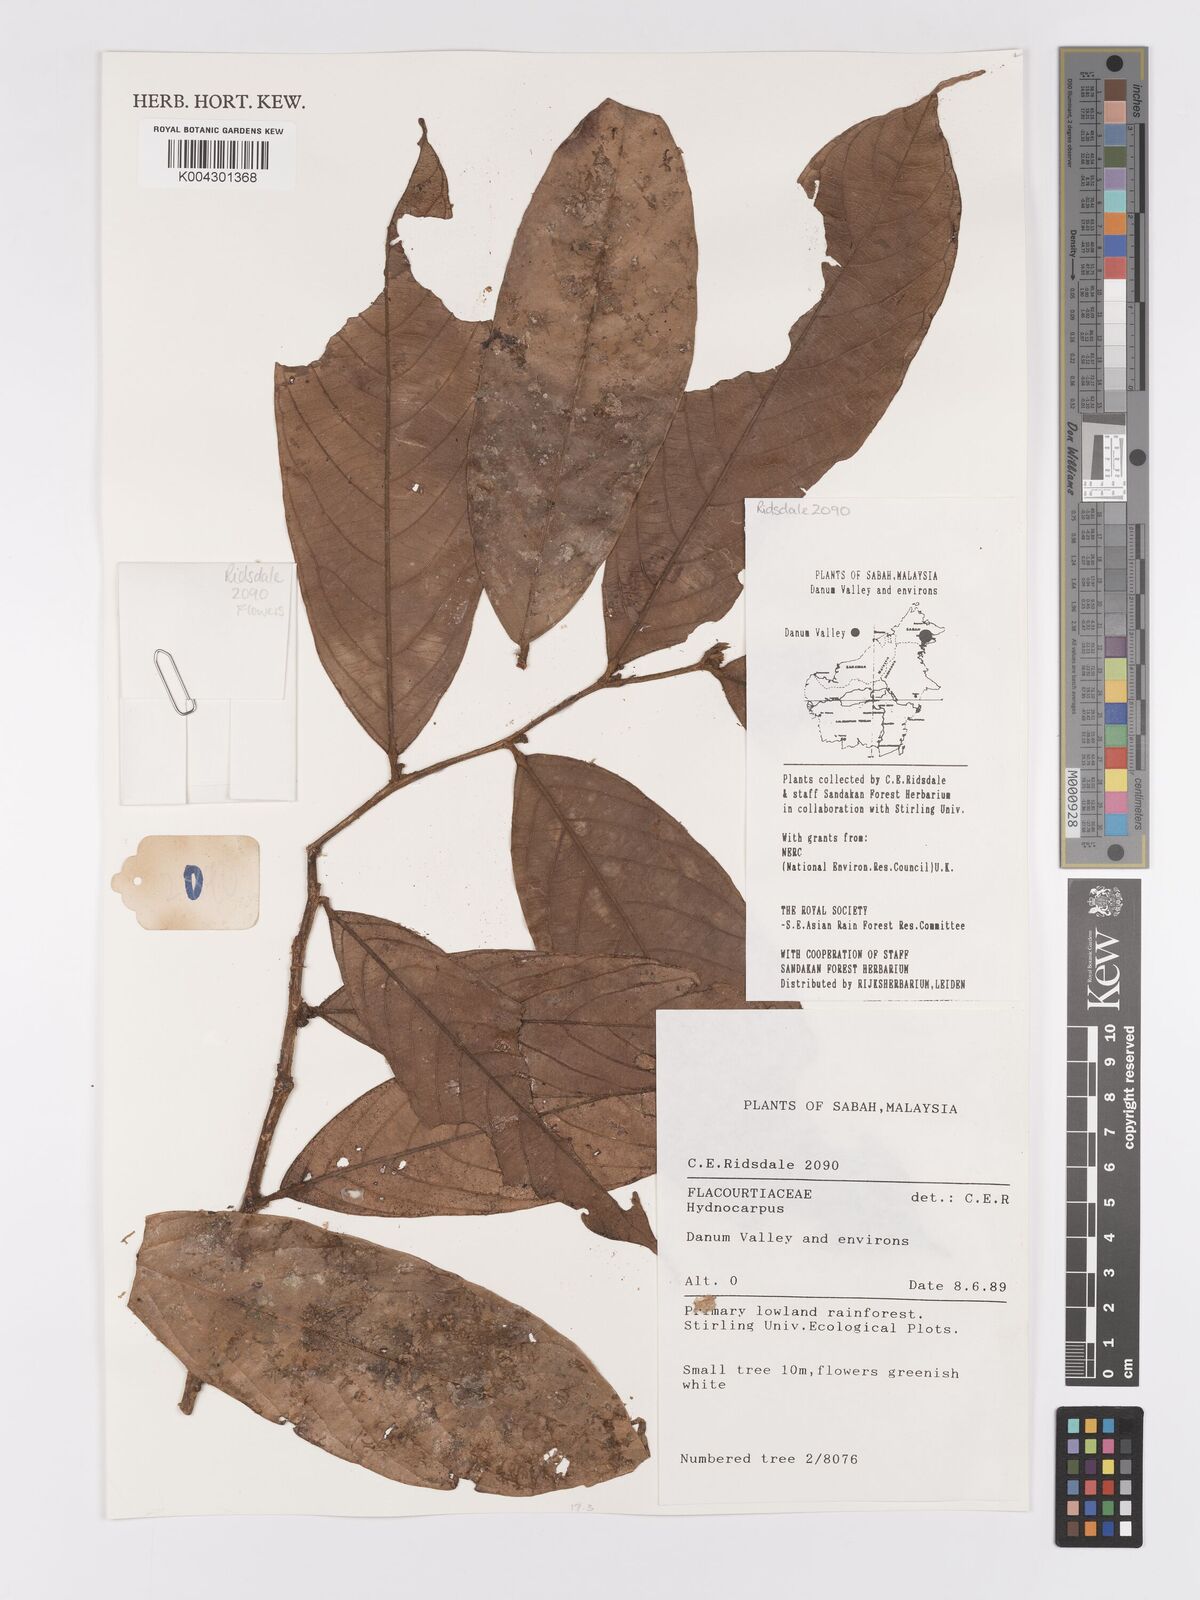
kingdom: Plantae
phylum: Tracheophyta
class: Magnoliopsida
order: Malpighiales
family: Achariaceae
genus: Hydnocarpus
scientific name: Hydnocarpus
